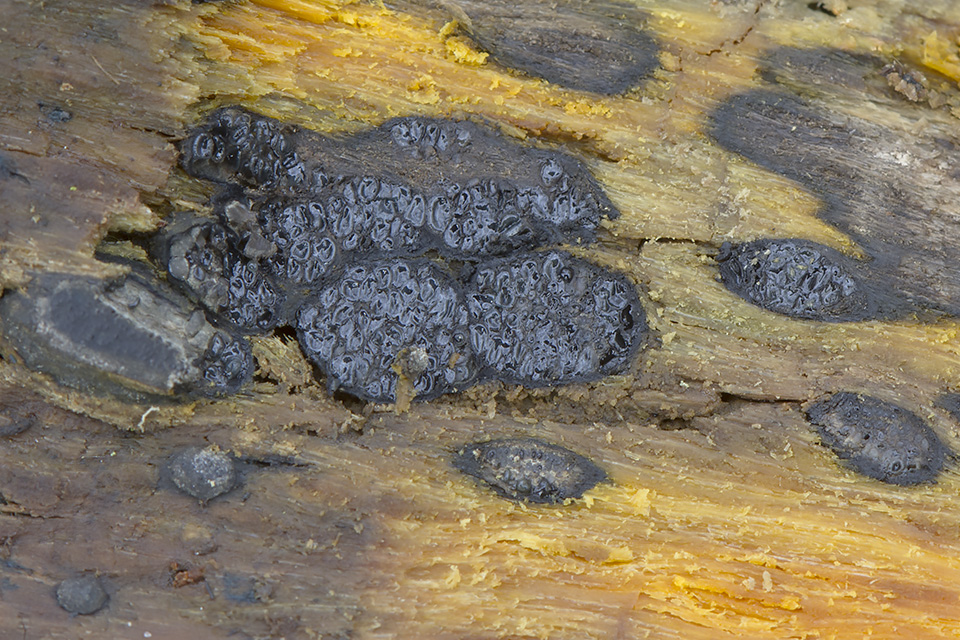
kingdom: Fungi
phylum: Ascomycota
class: Sordariomycetes
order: Boliniales
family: Boliniaceae
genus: Camaropella
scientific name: Camaropella lutea
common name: gulsplint-kulsnegl
